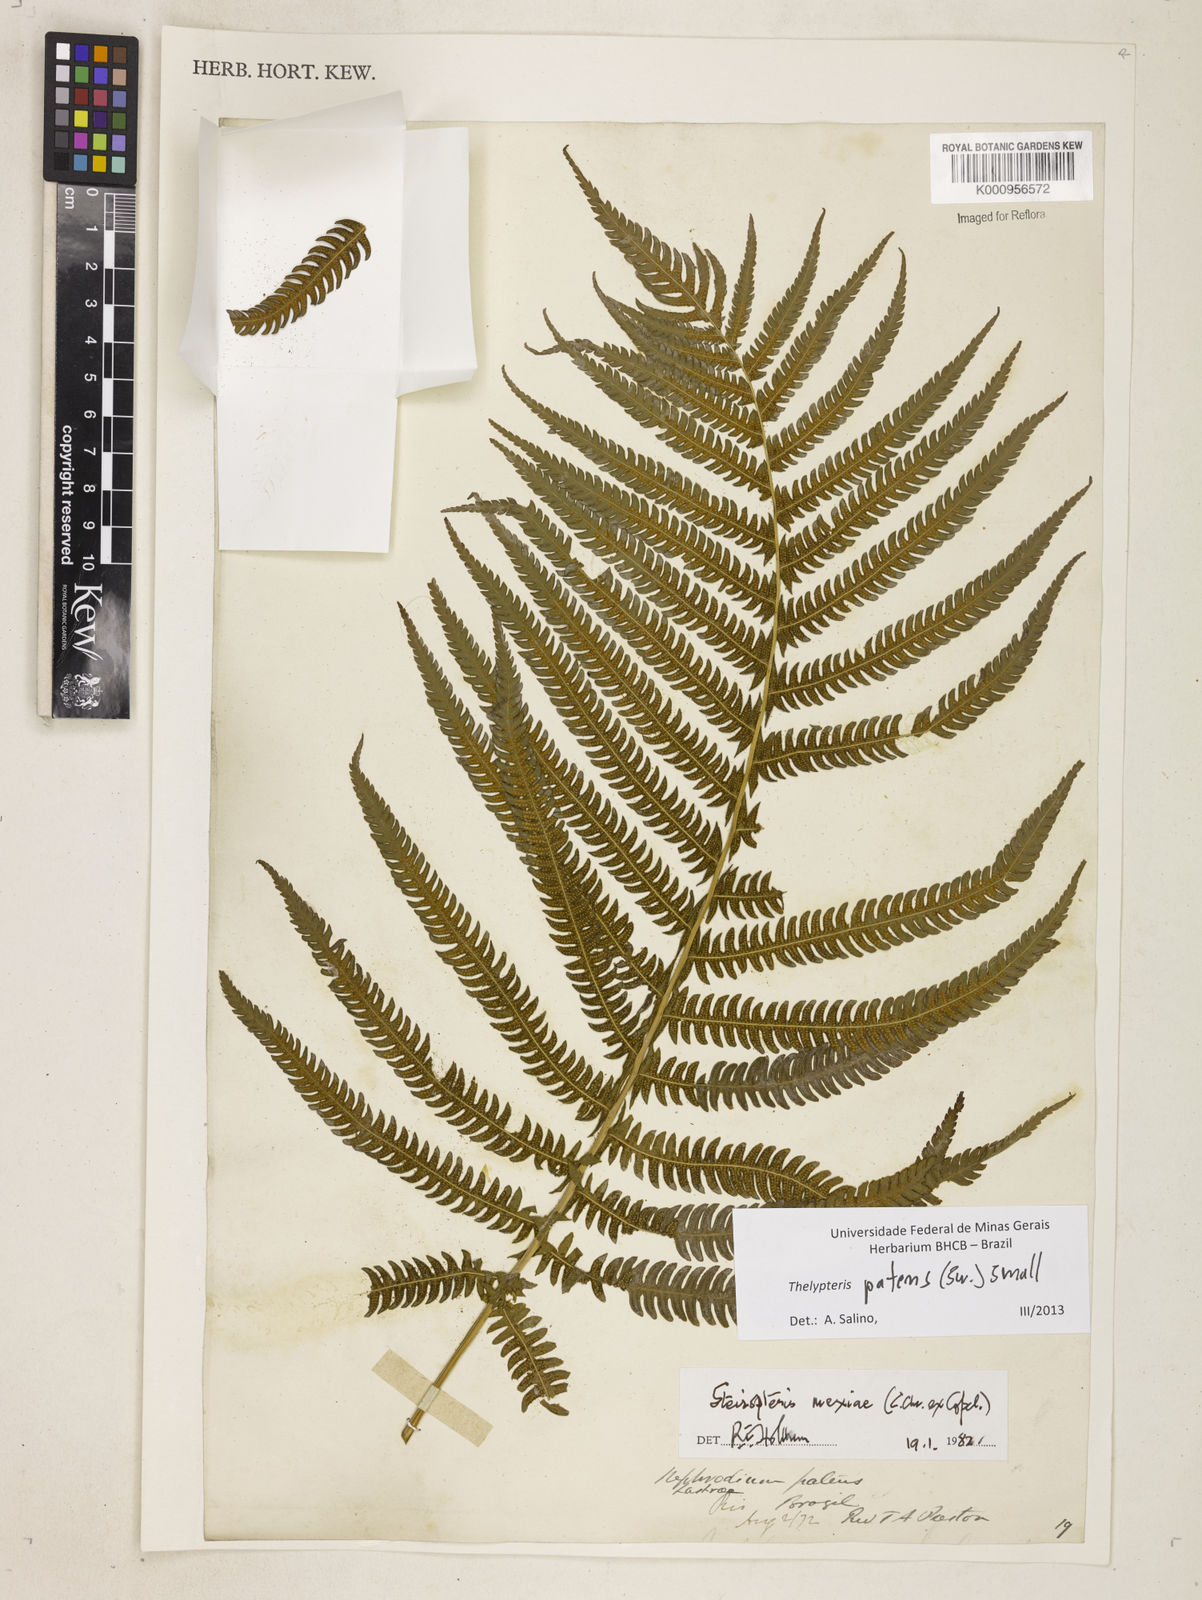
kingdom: Plantae
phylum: Tracheophyta
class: Polypodiopsida
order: Polypodiales
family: Thelypteridaceae
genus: Pelazoneuron
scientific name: Pelazoneuron patens
